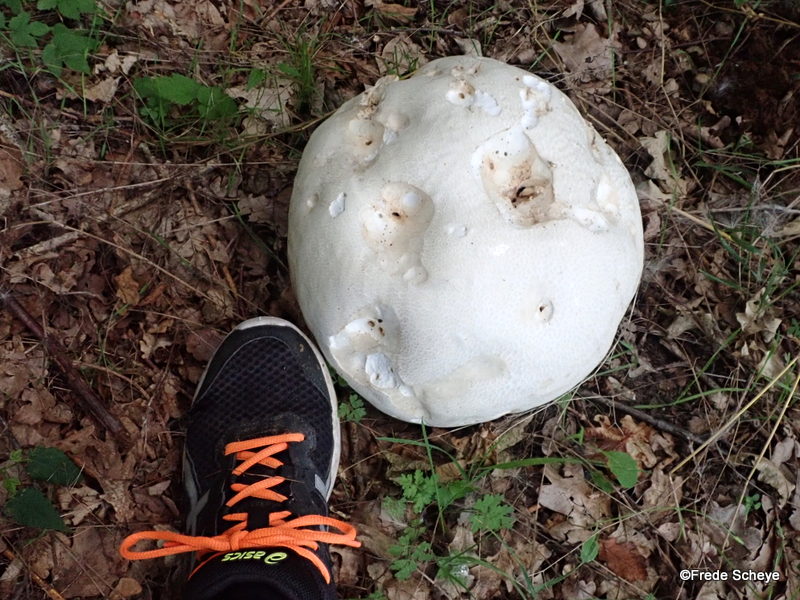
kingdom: Fungi
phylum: Basidiomycota
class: Agaricomycetes
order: Agaricales
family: Lycoperdaceae
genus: Calvatia
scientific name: Calvatia gigantea
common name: kæmpestøvbold
